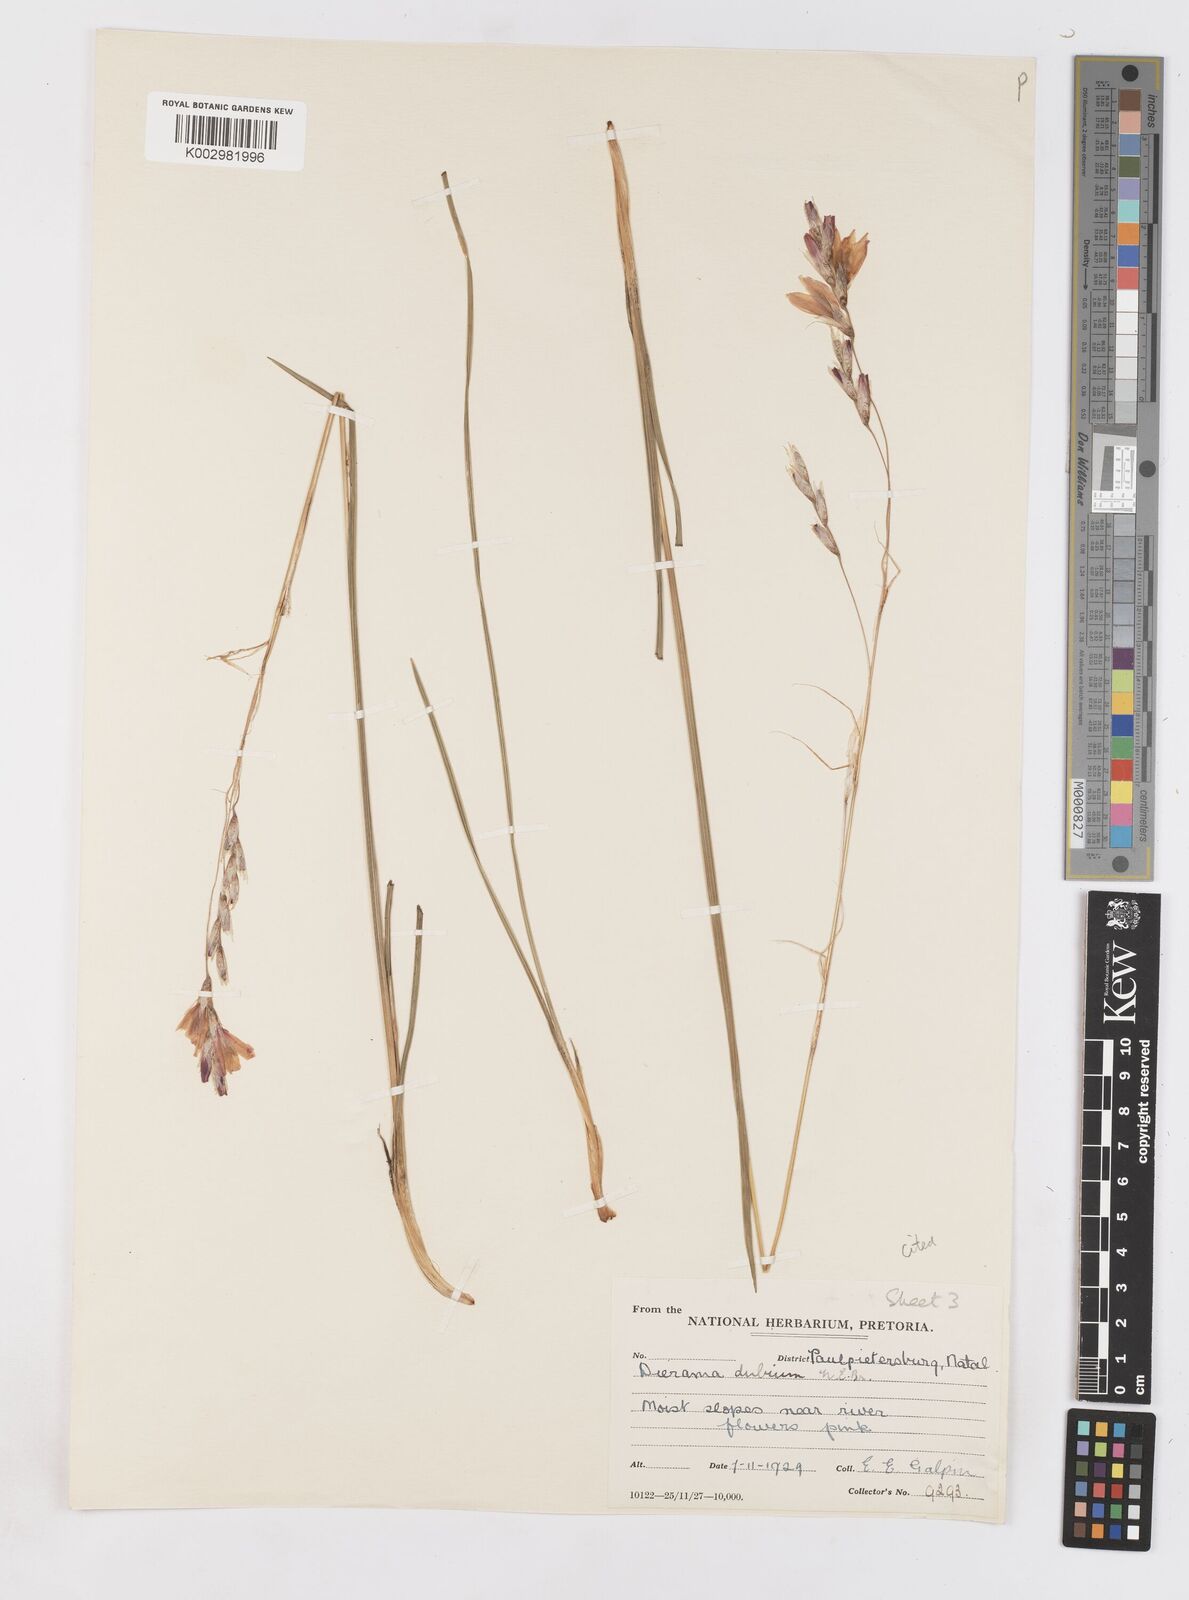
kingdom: Plantae
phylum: Tracheophyta
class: Liliopsida
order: Asparagales
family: Iridaceae
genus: Dierama
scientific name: Dierama mossii
